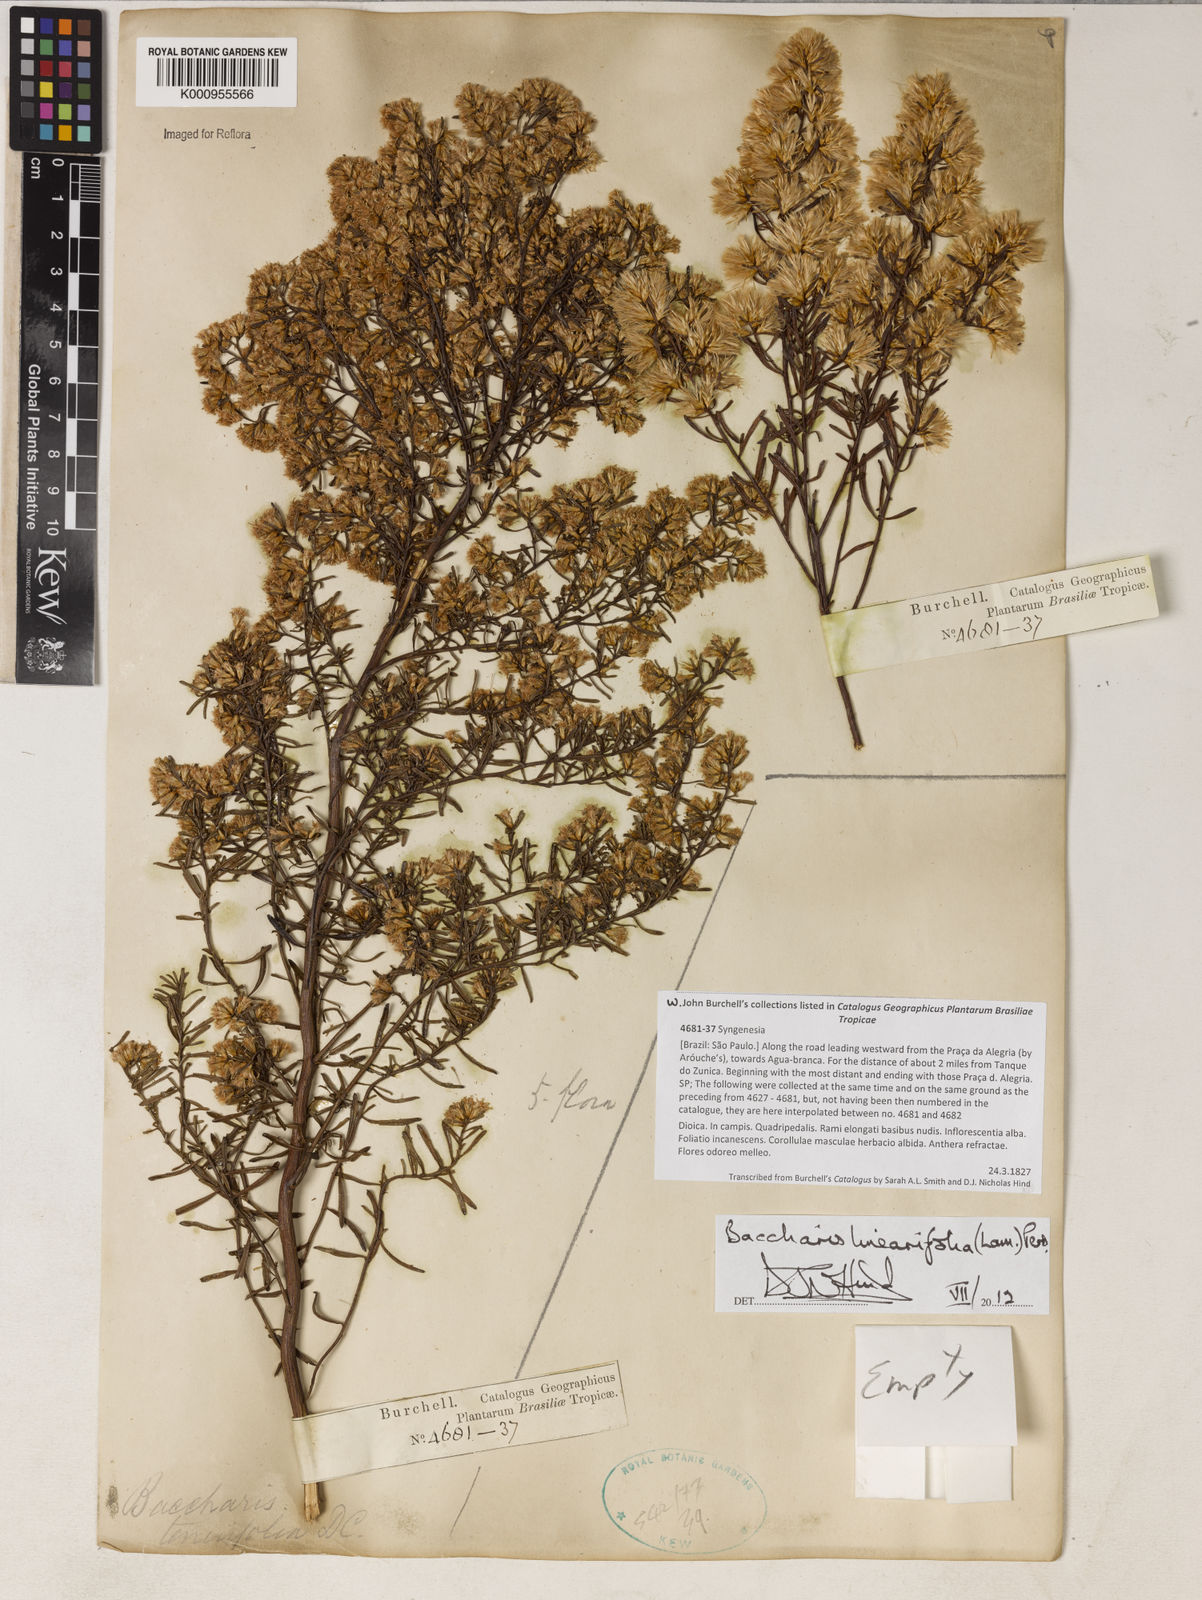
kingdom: Plantae
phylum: Tracheophyta
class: Magnoliopsida
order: Asterales
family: Asteraceae
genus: Baccharis
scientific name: Baccharis linearifolia
